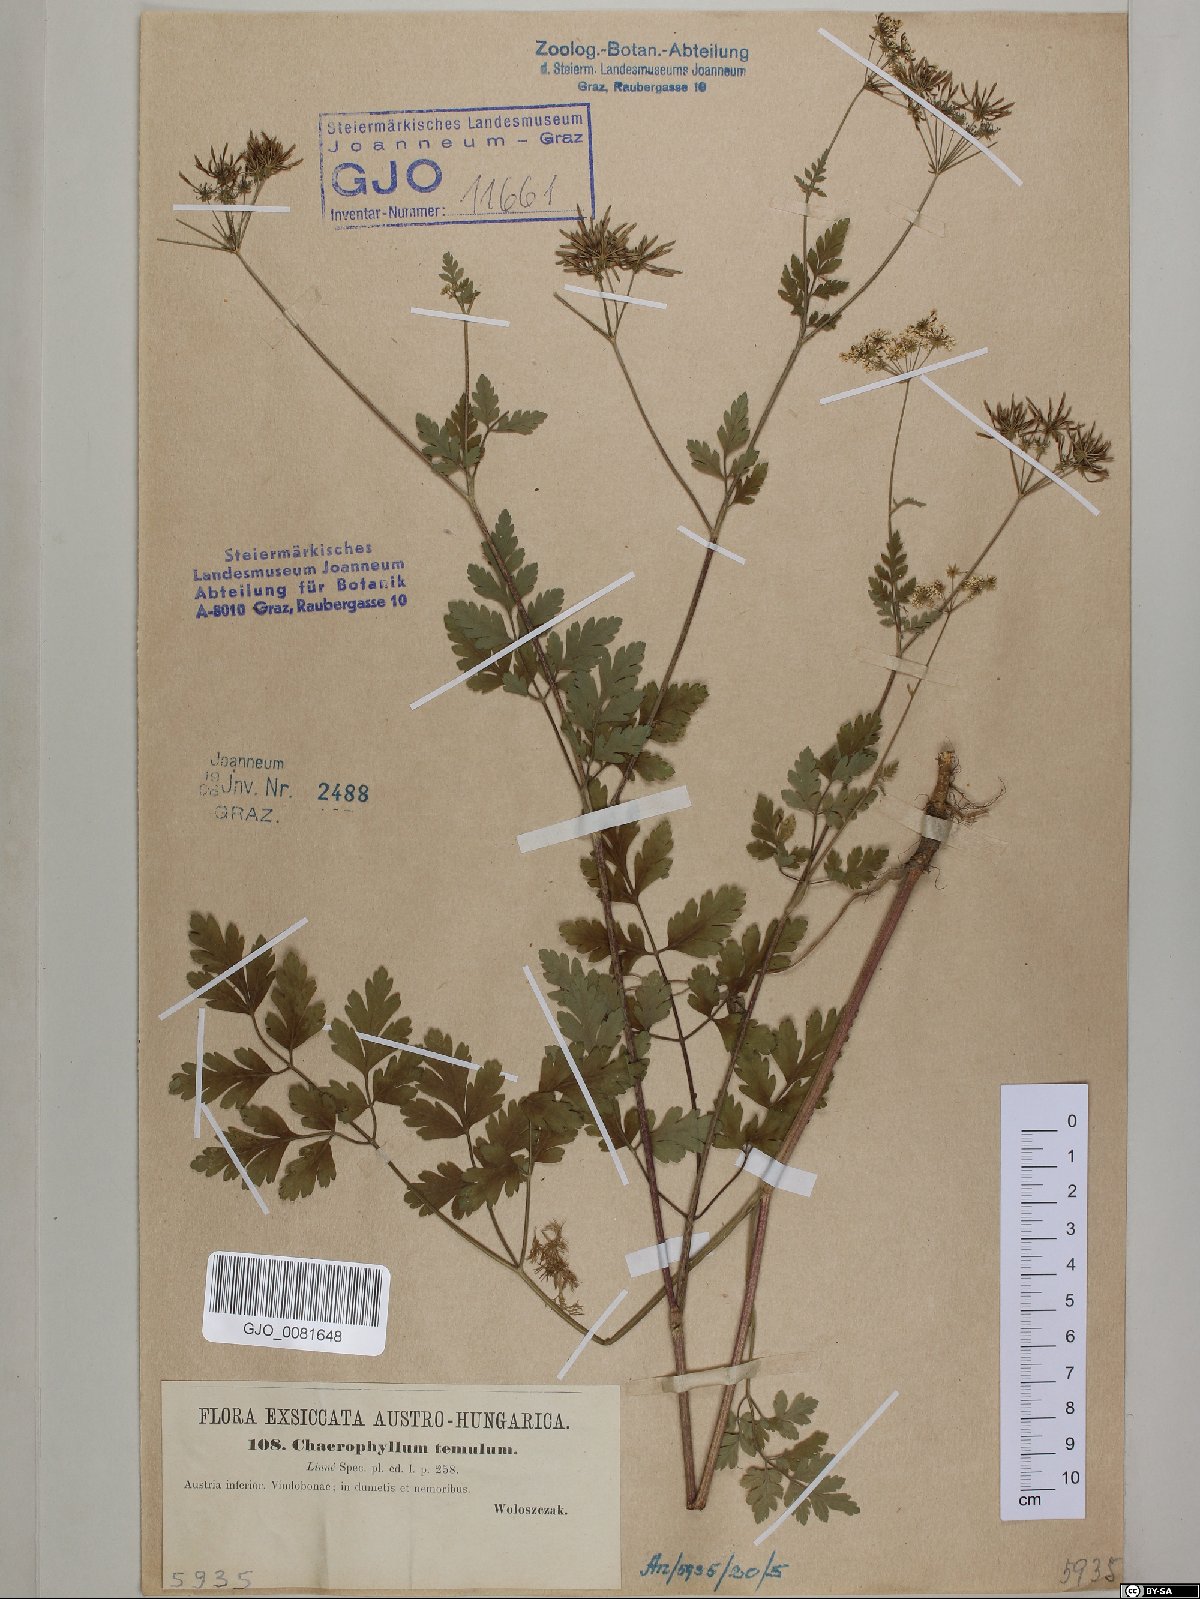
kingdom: Plantae
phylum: Tracheophyta
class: Magnoliopsida
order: Apiales
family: Apiaceae
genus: Chaerophyllum
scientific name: Chaerophyllum temulum
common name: Rough chervil
